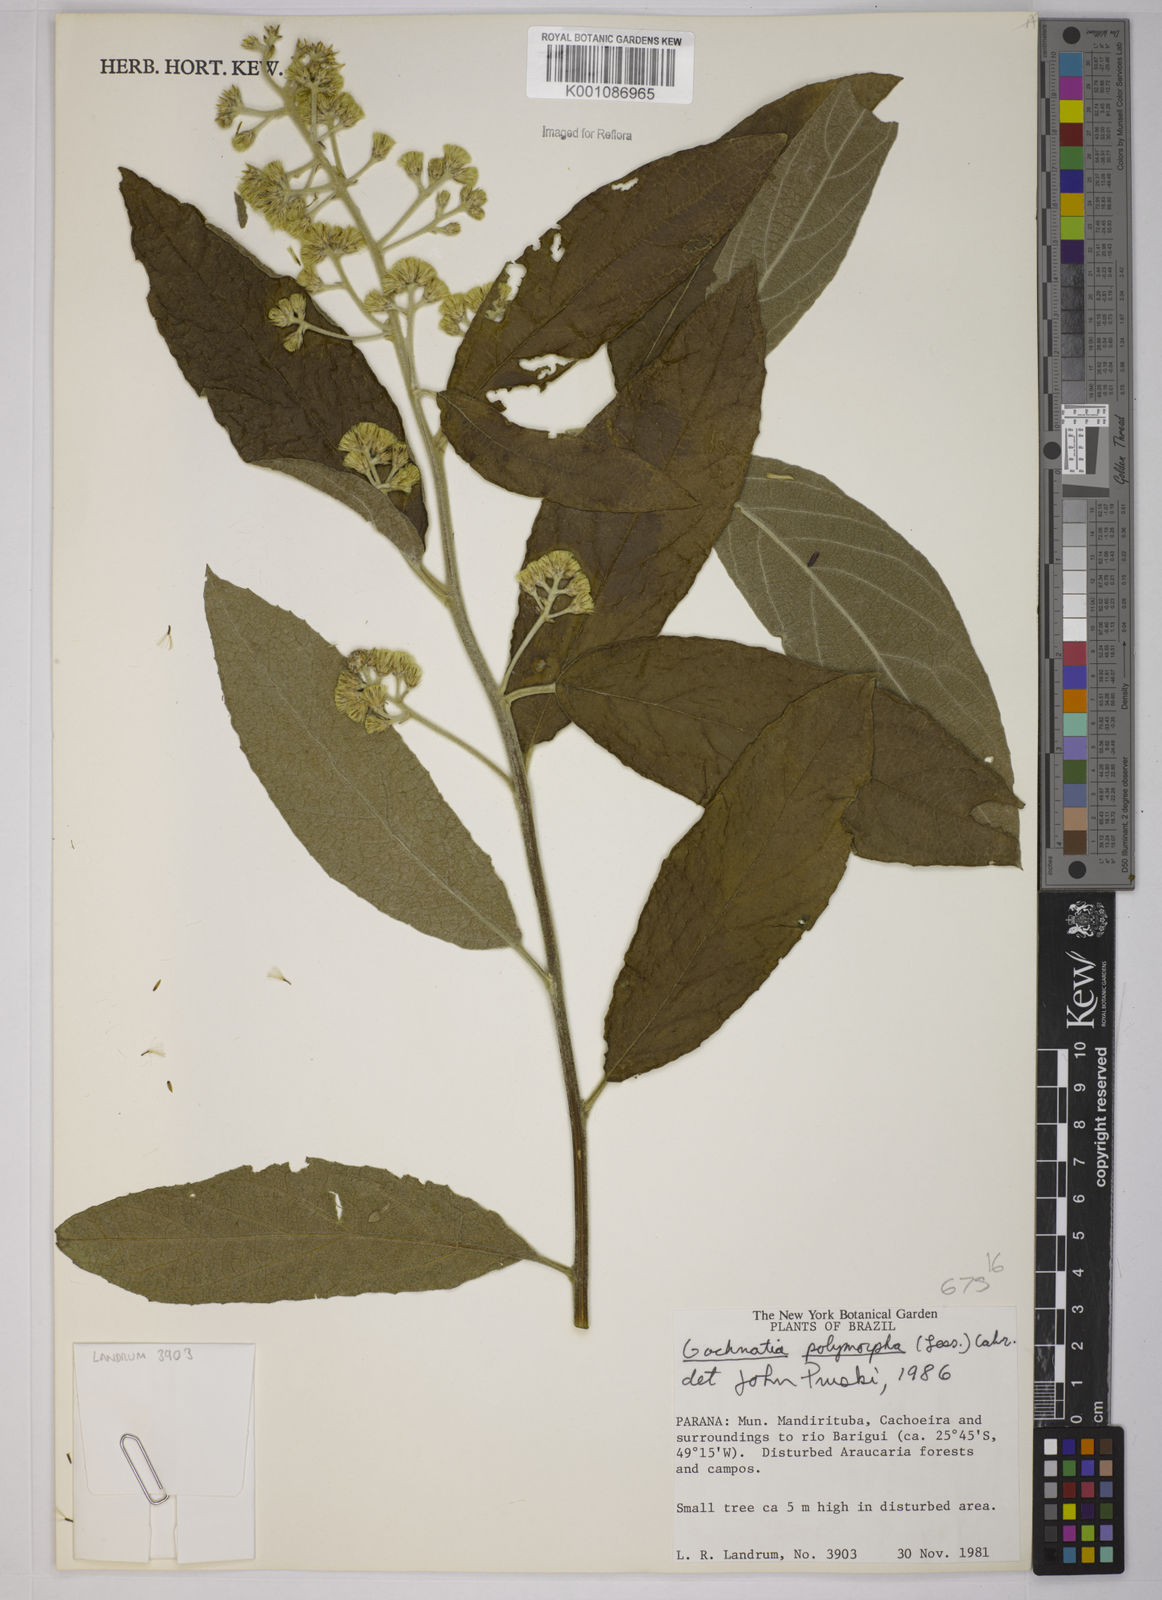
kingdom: Plantae
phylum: Tracheophyta
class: Magnoliopsida
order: Asterales
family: Asteraceae
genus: Moquiniastrum
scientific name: Moquiniastrum polymorphum
